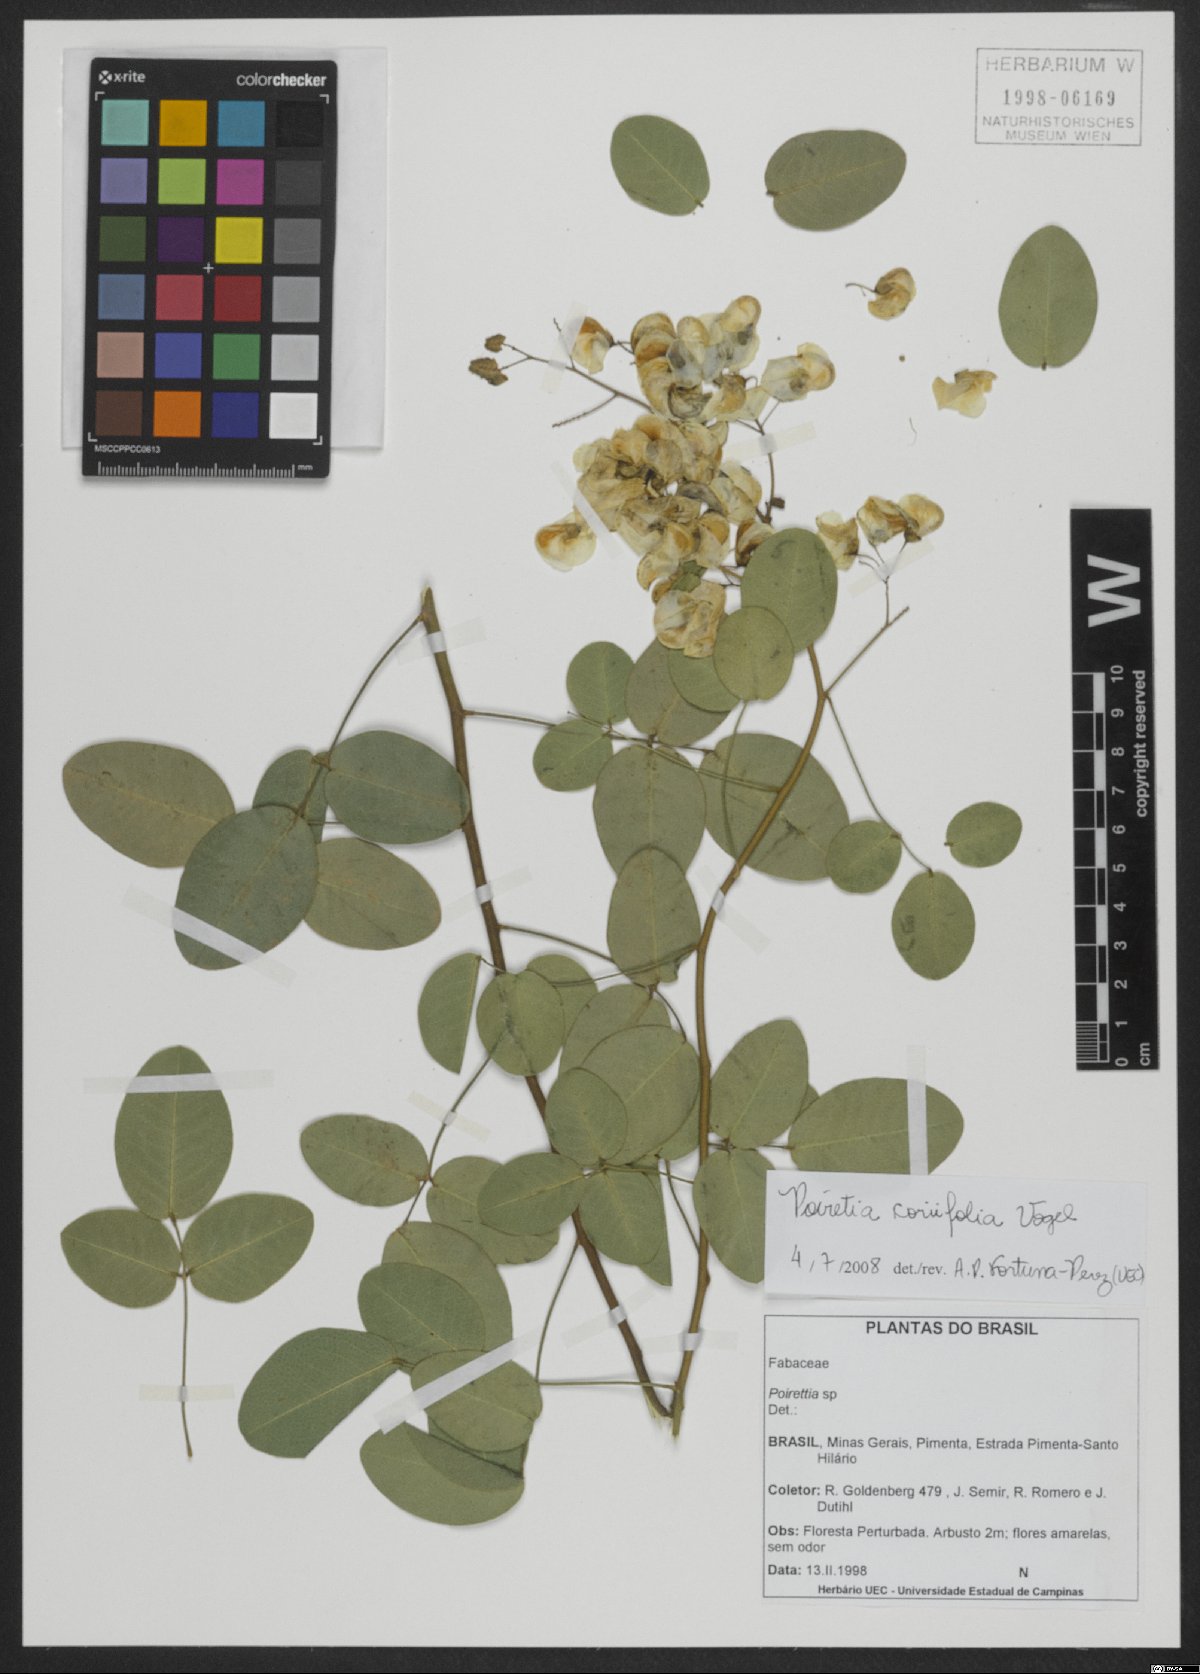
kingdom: Plantae
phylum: Tracheophyta
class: Magnoliopsida
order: Fabales
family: Fabaceae
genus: Poiretia
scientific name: Poiretia coriifolia
